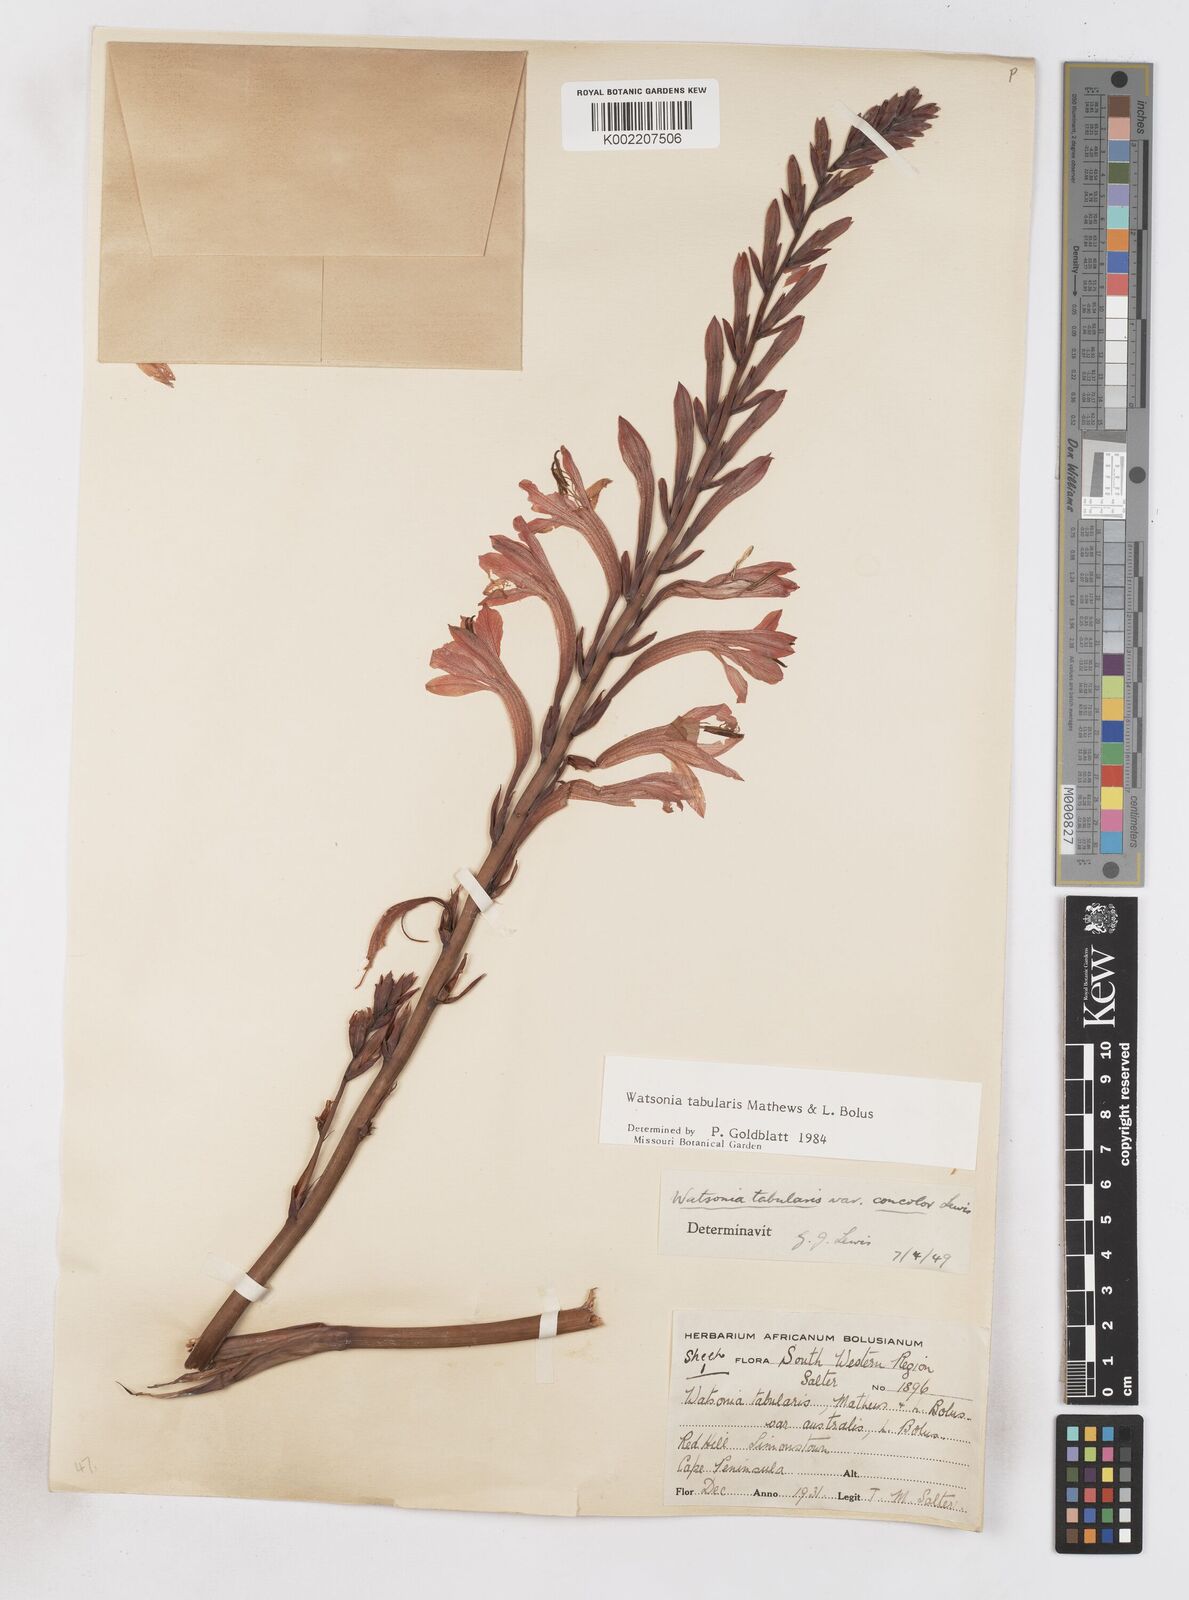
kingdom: Plantae
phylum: Tracheophyta
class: Liliopsida
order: Asparagales
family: Iridaceae
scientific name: Iridaceae
